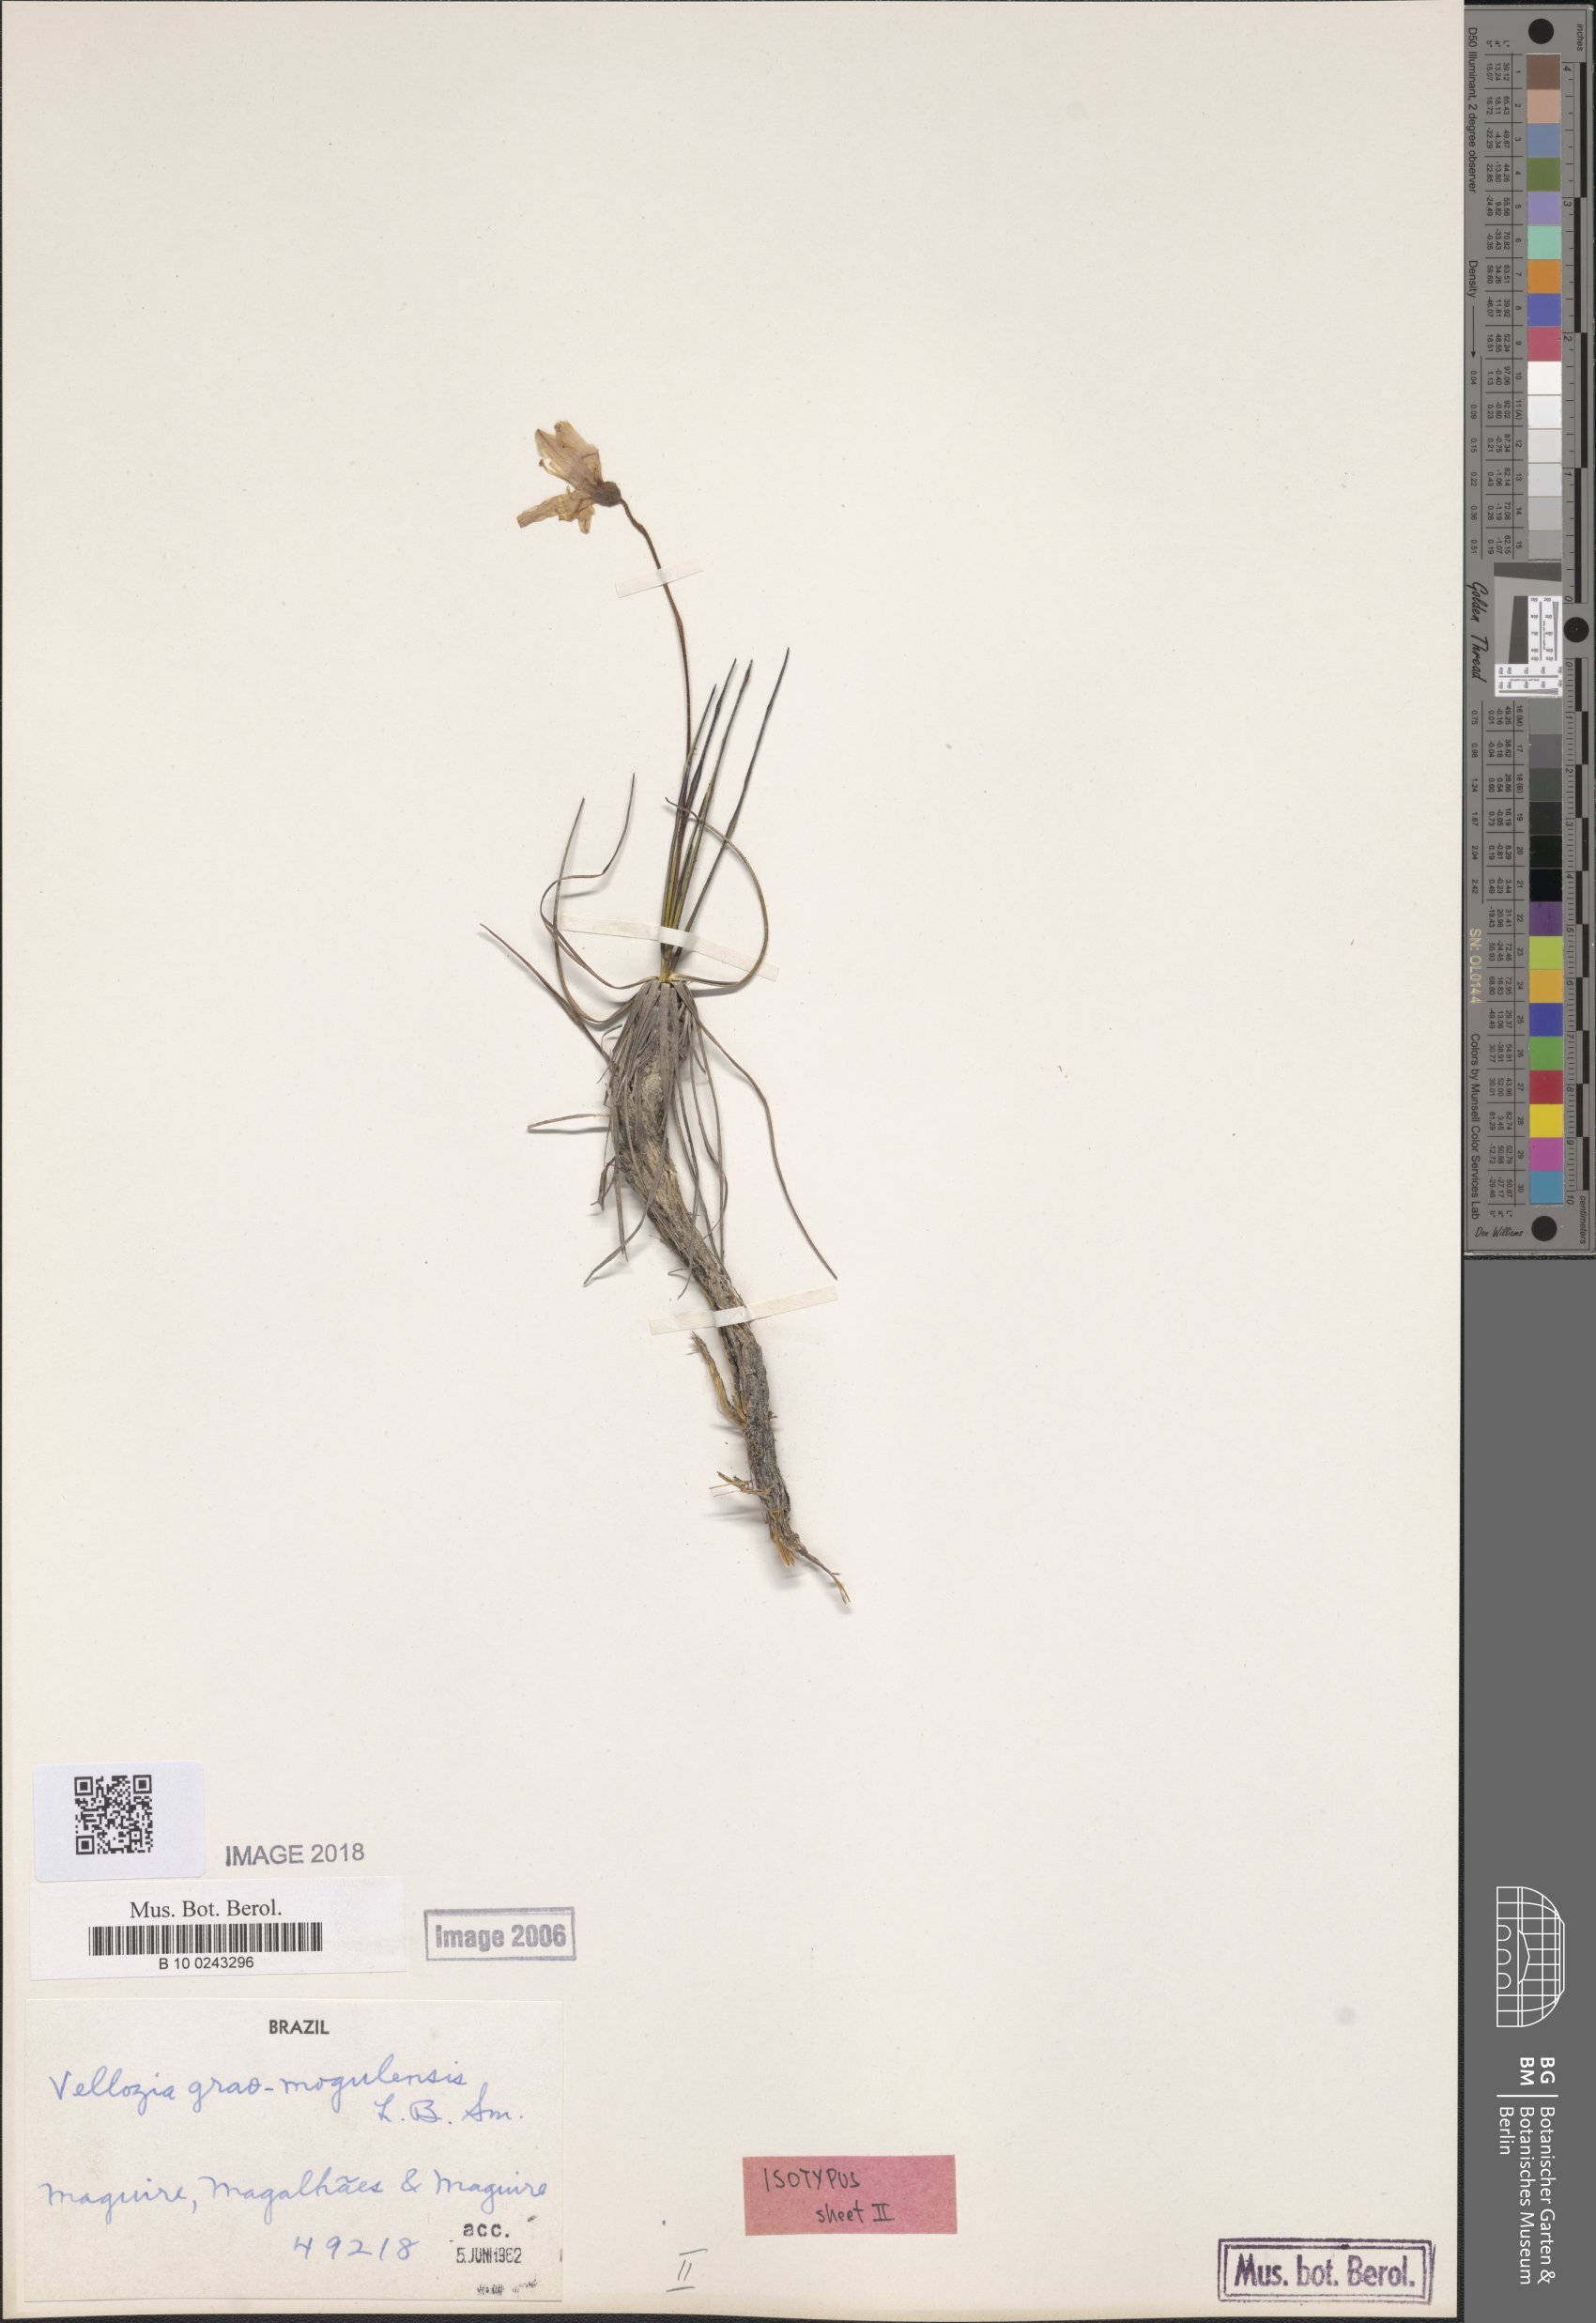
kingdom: Plantae
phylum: Tracheophyta
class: Liliopsida
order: Pandanales
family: Velloziaceae
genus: Vellozia
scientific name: Vellozia graomogolensis
